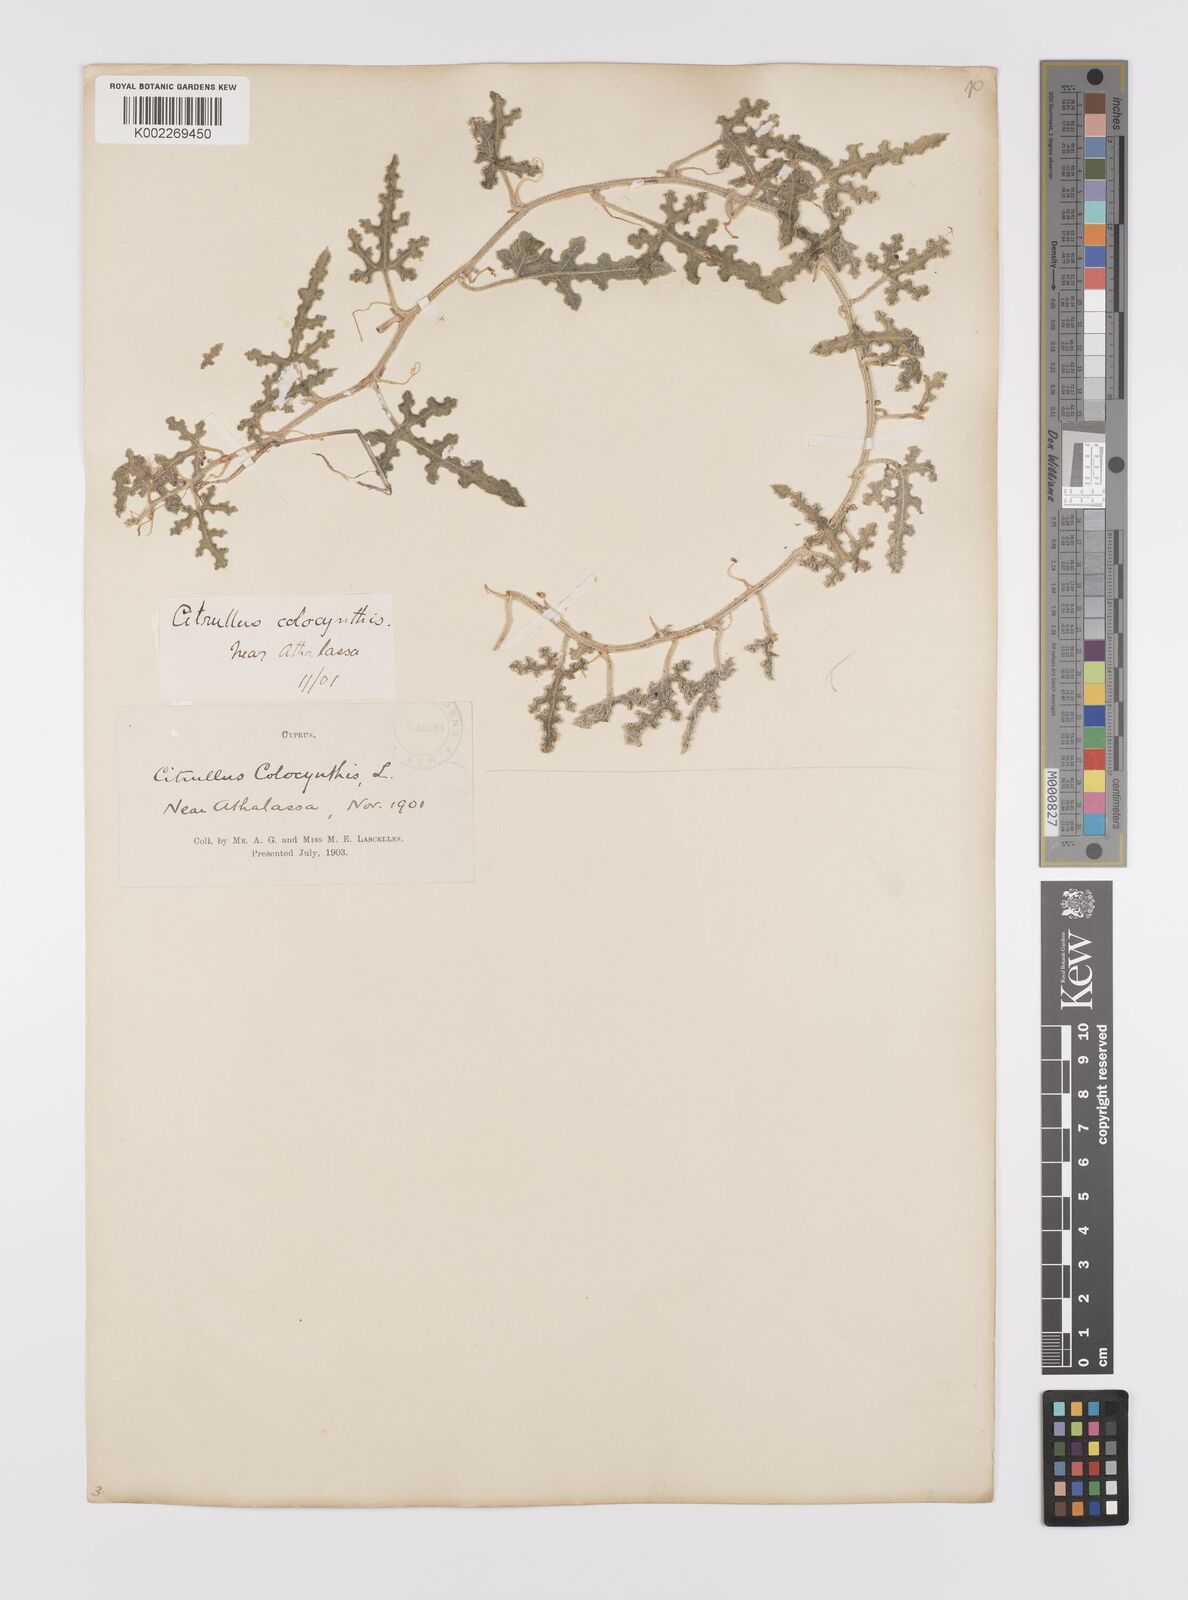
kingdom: Plantae
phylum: Tracheophyta
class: Magnoliopsida
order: Cucurbitales
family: Cucurbitaceae
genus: Citrullus
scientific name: Citrullus colocynthis
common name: Colocynth
